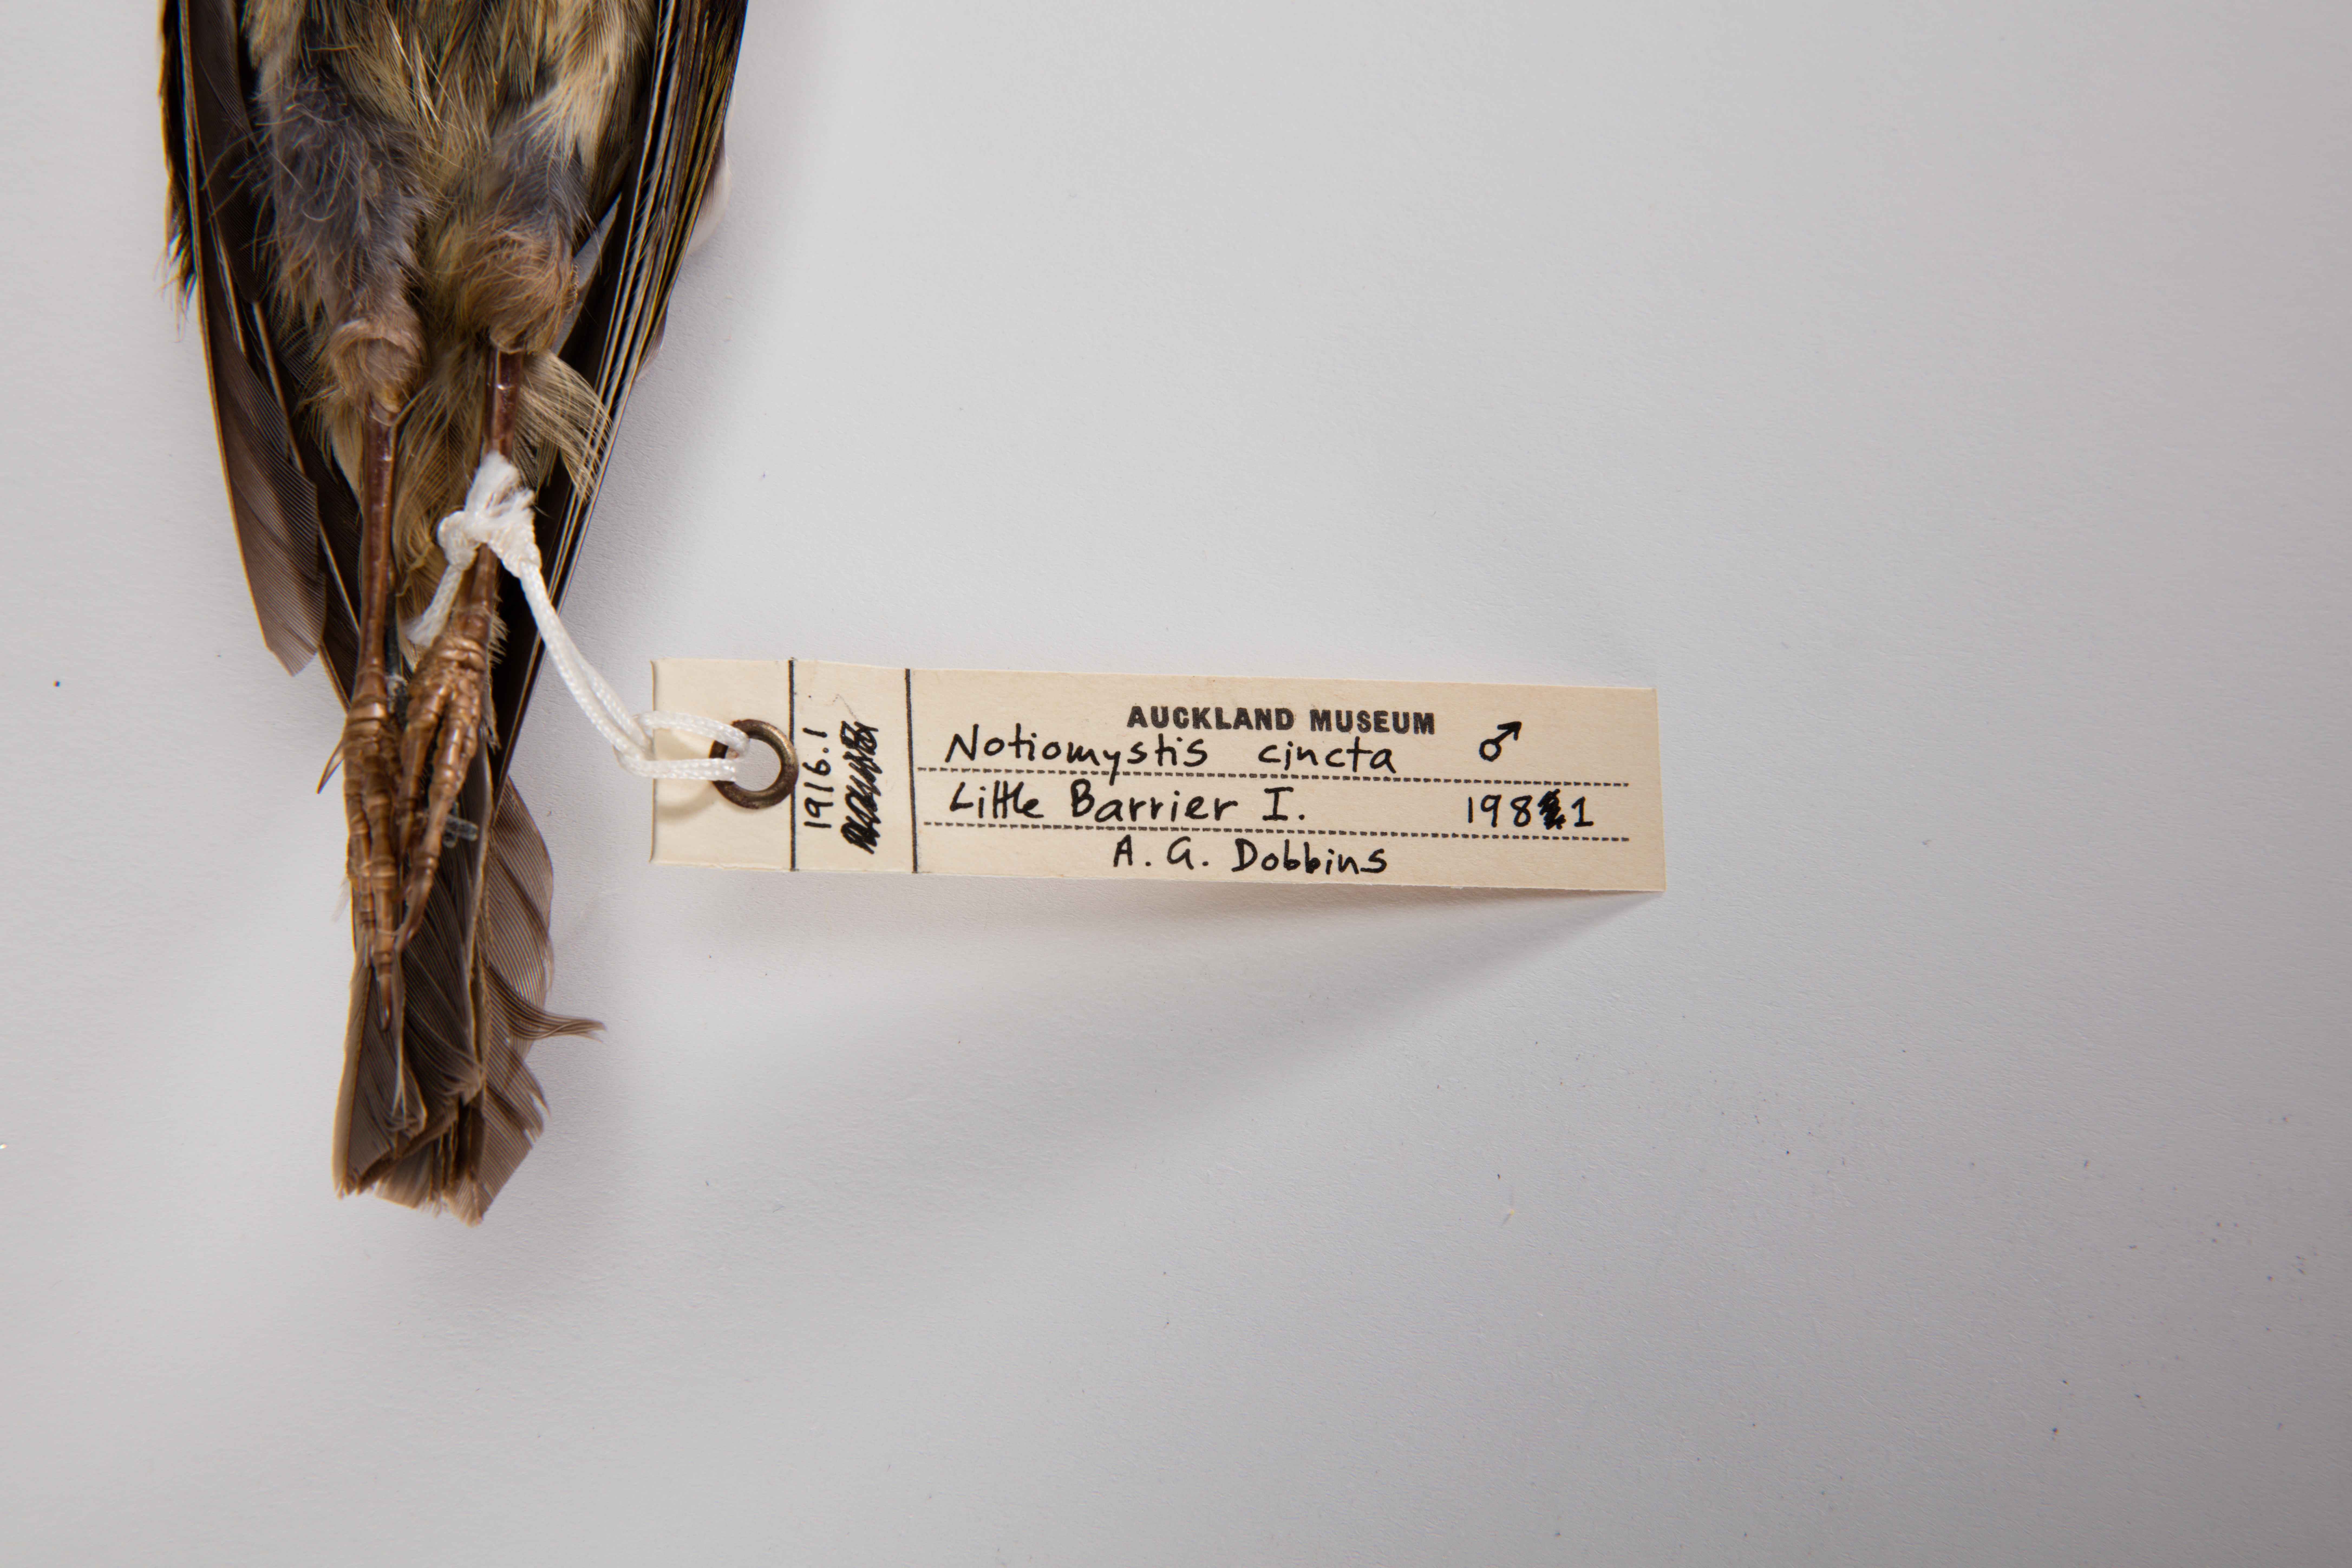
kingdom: Animalia
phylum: Chordata
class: Aves
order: Passeriformes
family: Notiomystidae
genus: Notiomystis
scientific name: Notiomystis cincta
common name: Stitchbird
